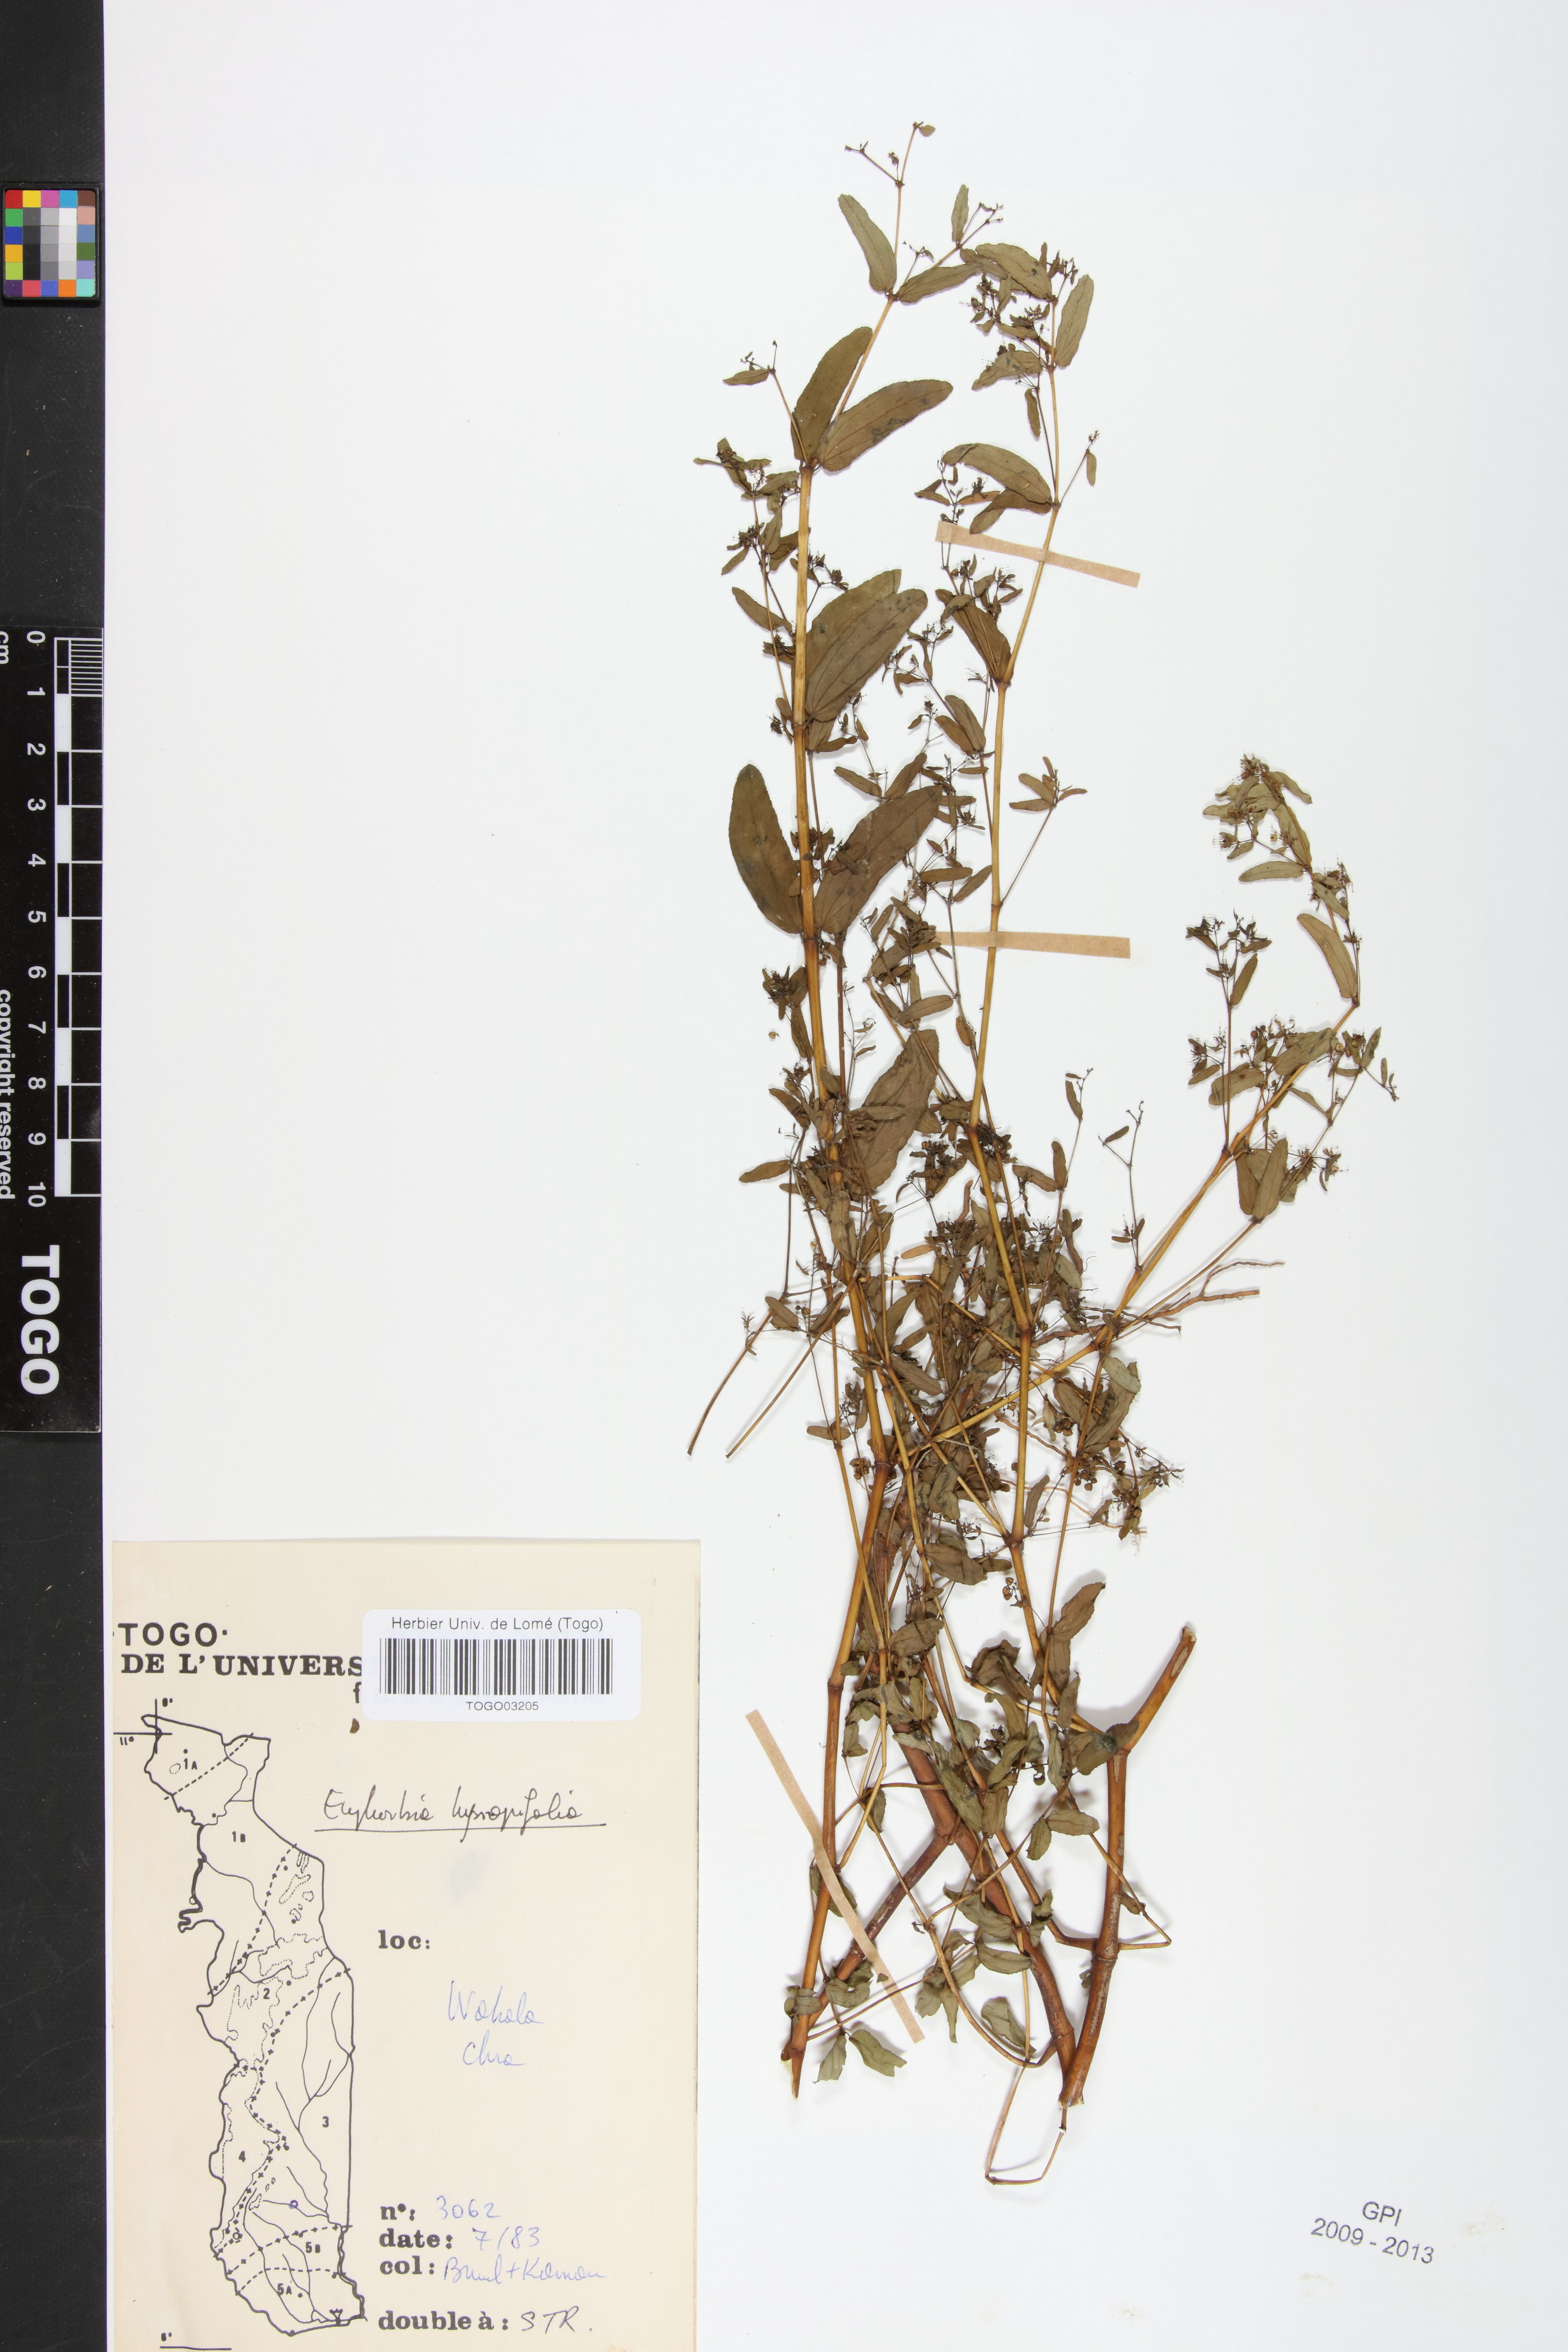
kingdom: Plantae
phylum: Tracheophyta
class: Magnoliopsida
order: Malpighiales
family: Euphorbiaceae
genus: Euphorbia
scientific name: Euphorbia hyssopifolia
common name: Hyssopleaf sandmat
